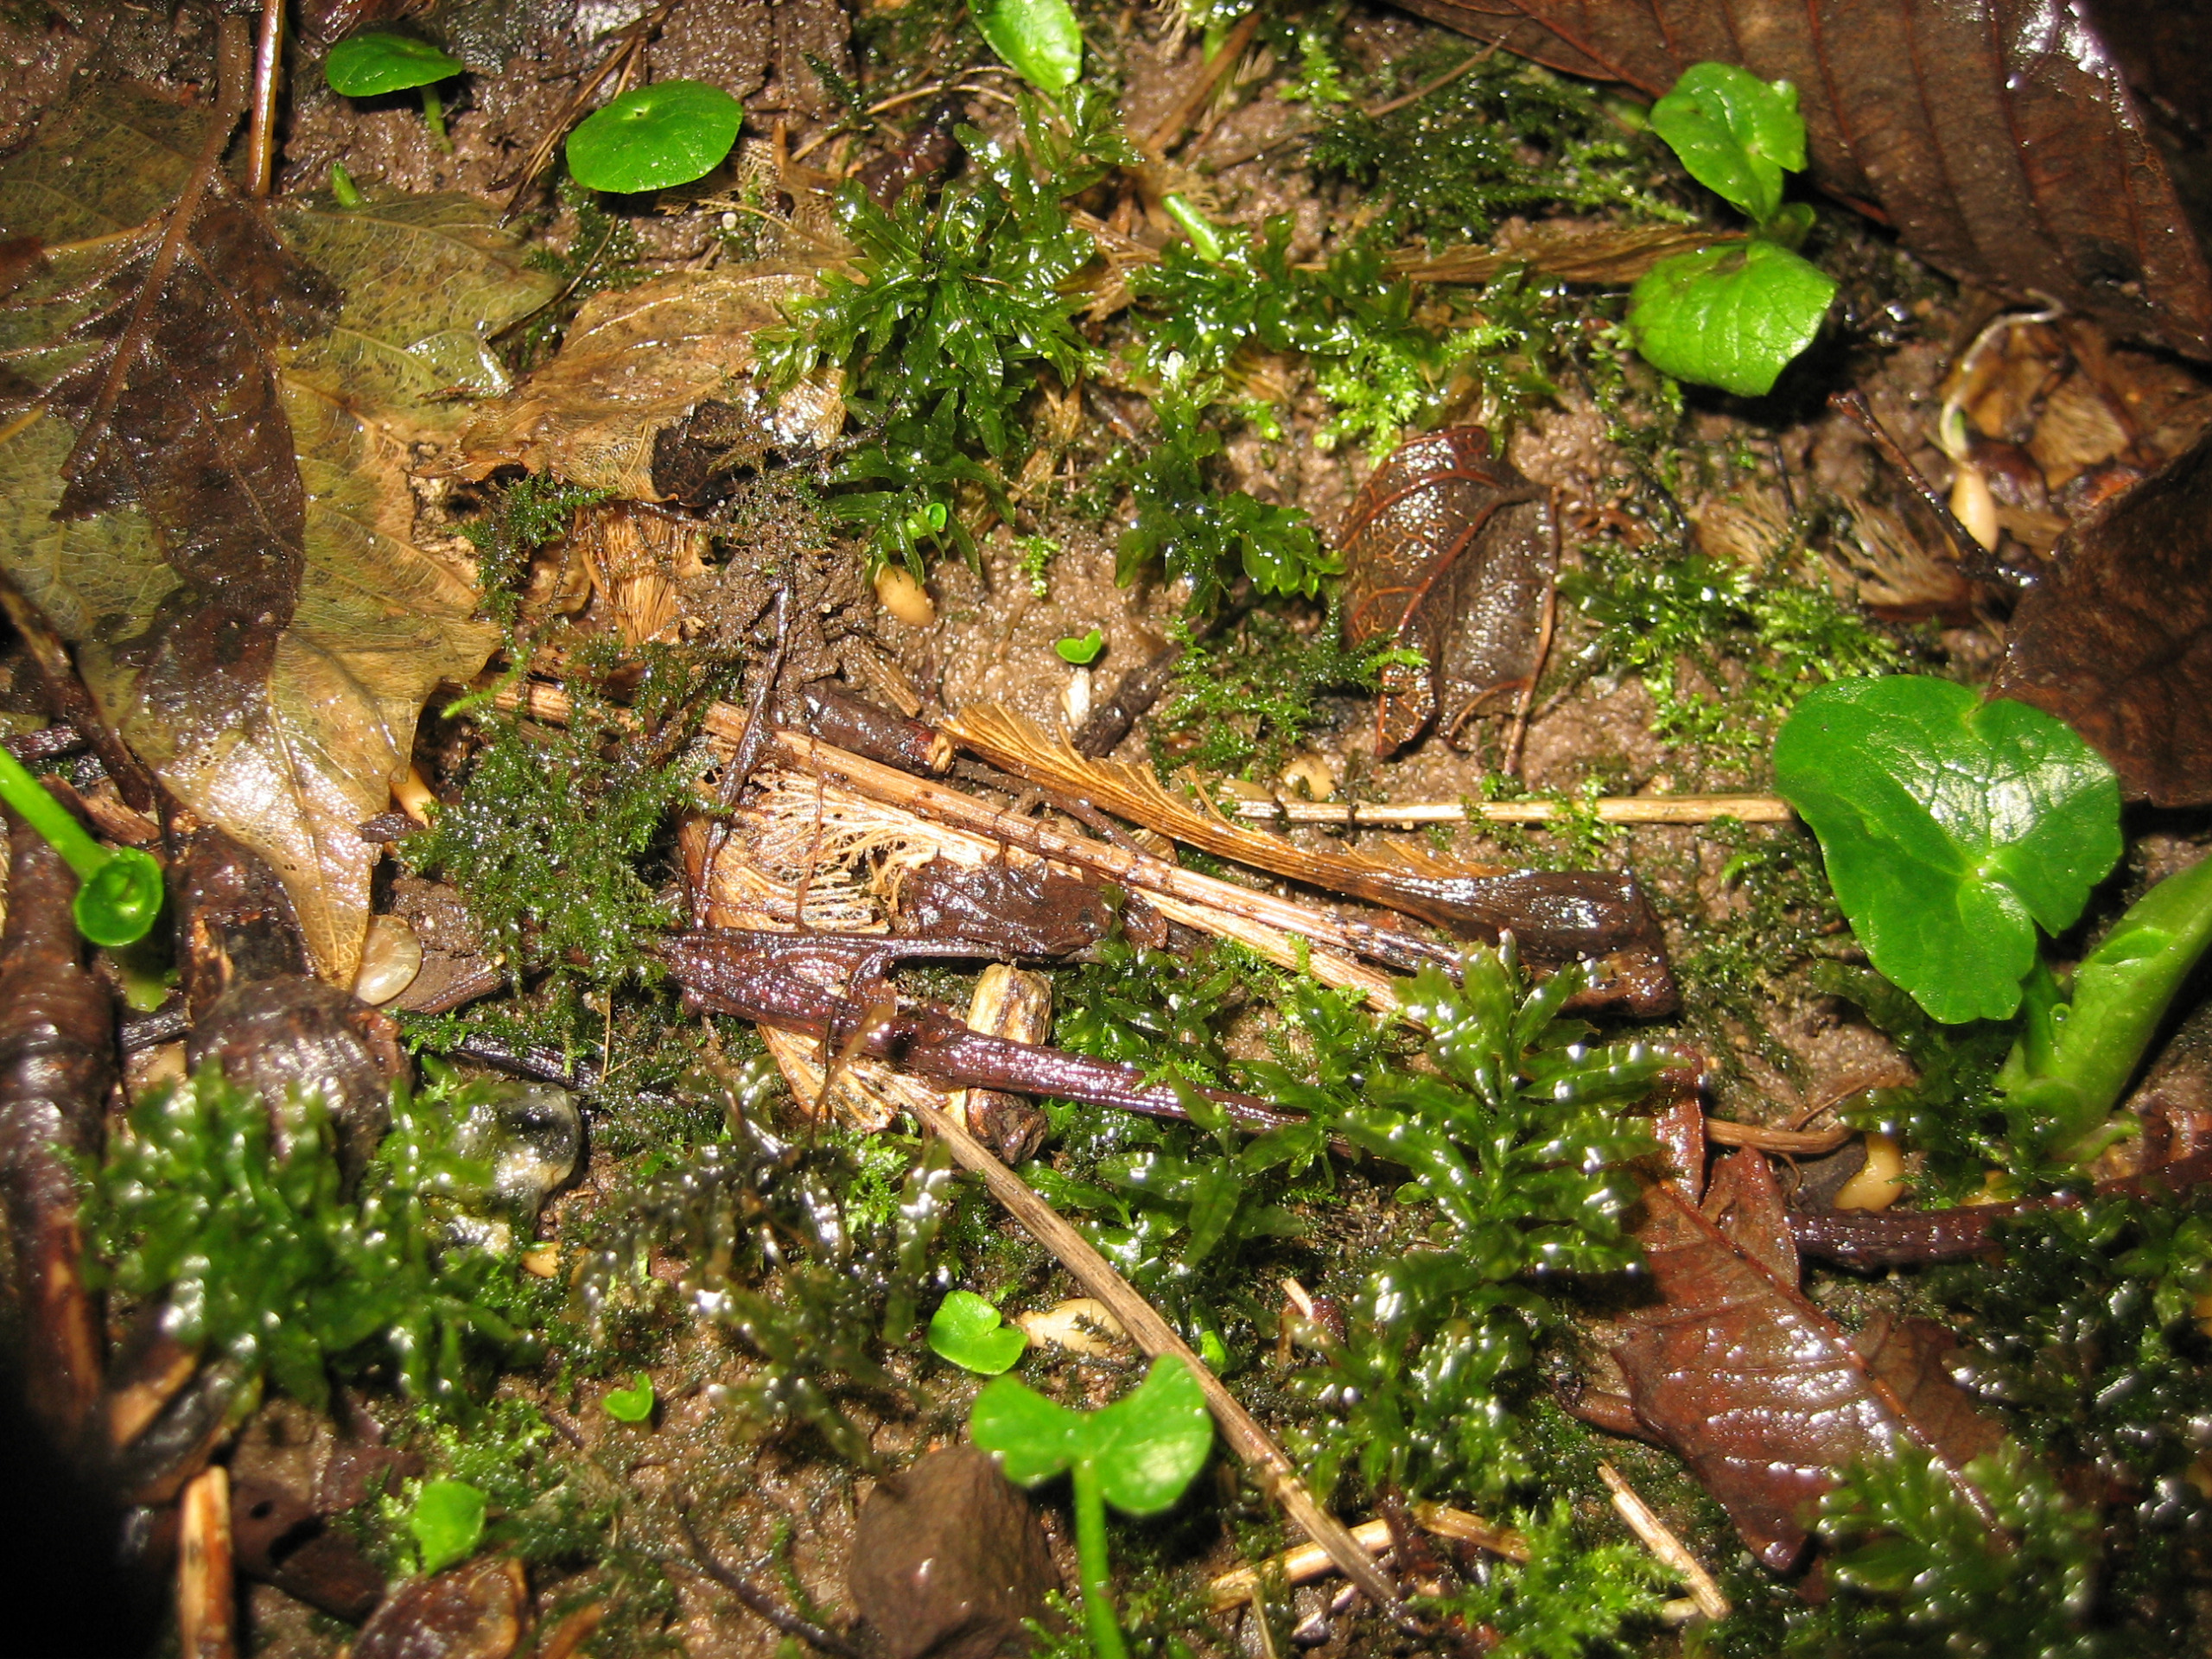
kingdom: Plantae
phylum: Bryophyta
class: Bryopsida
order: Bryales
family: Mniaceae
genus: Plagiomnium
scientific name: Plagiomnium undulatum
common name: Bølget krybstjerne
